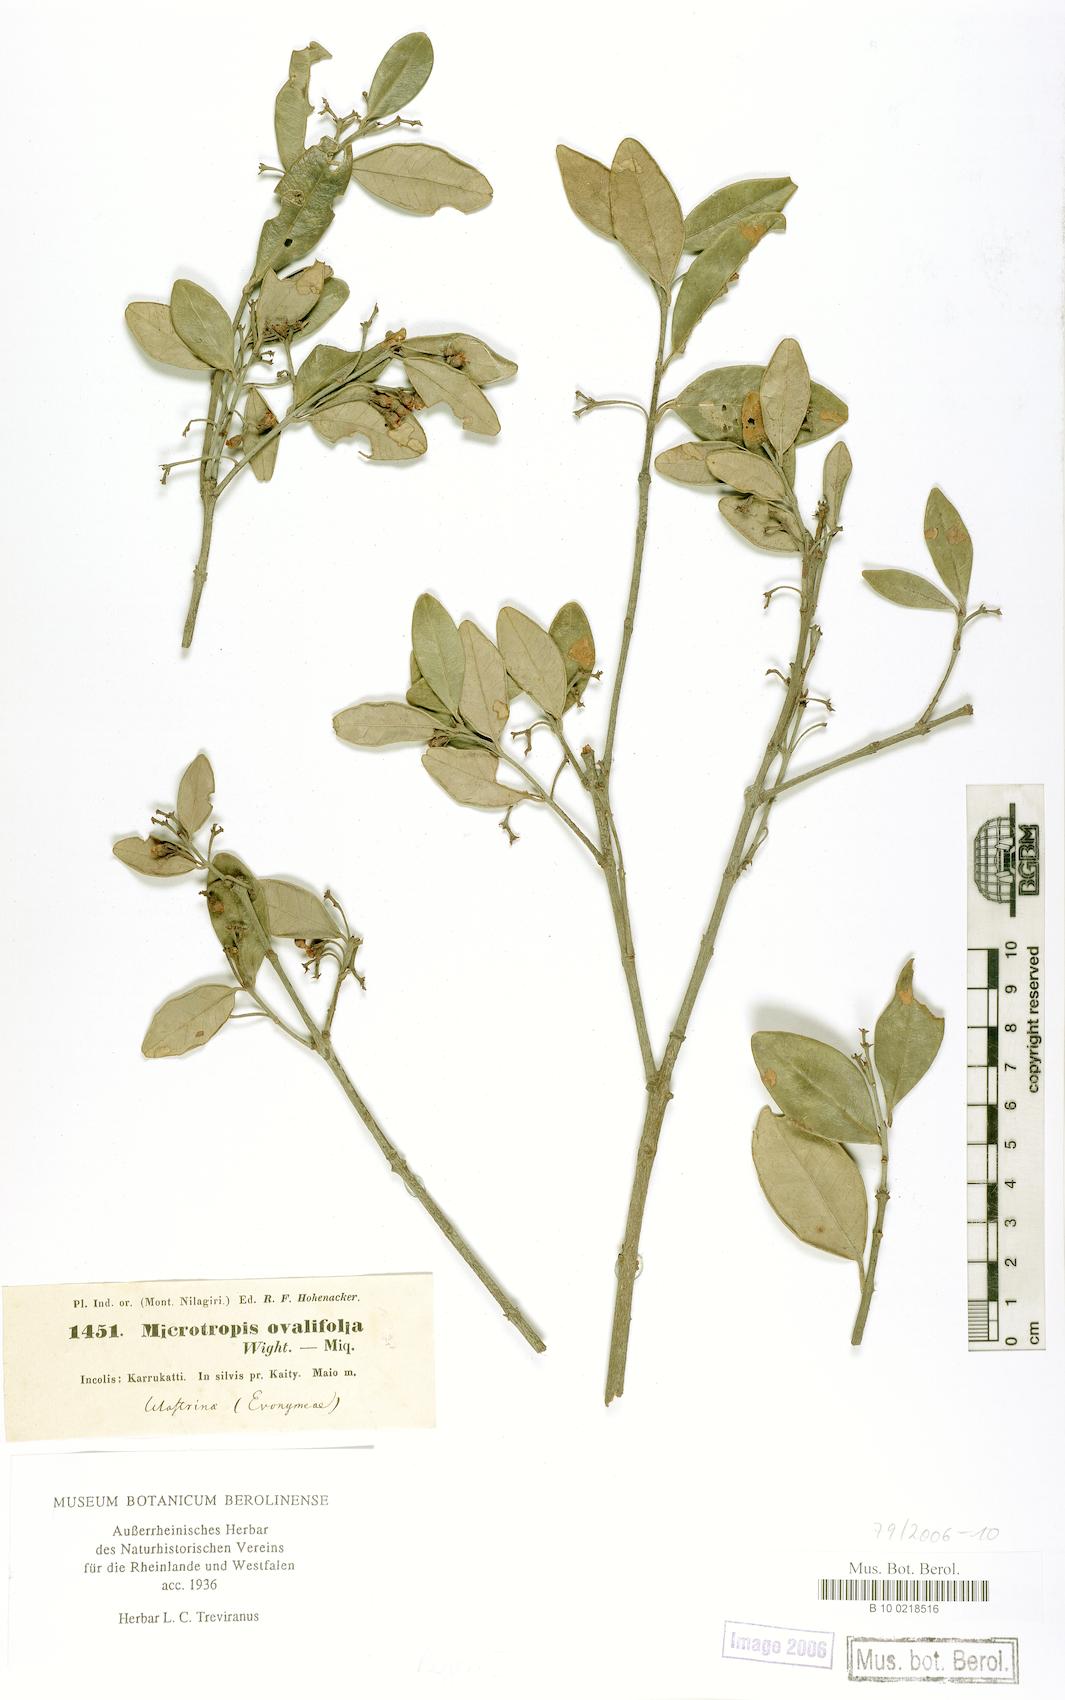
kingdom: Plantae
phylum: Tracheophyta
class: Magnoliopsida
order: Celastrales
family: Celastraceae
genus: Microtropis
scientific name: Microtropis microcarpa
